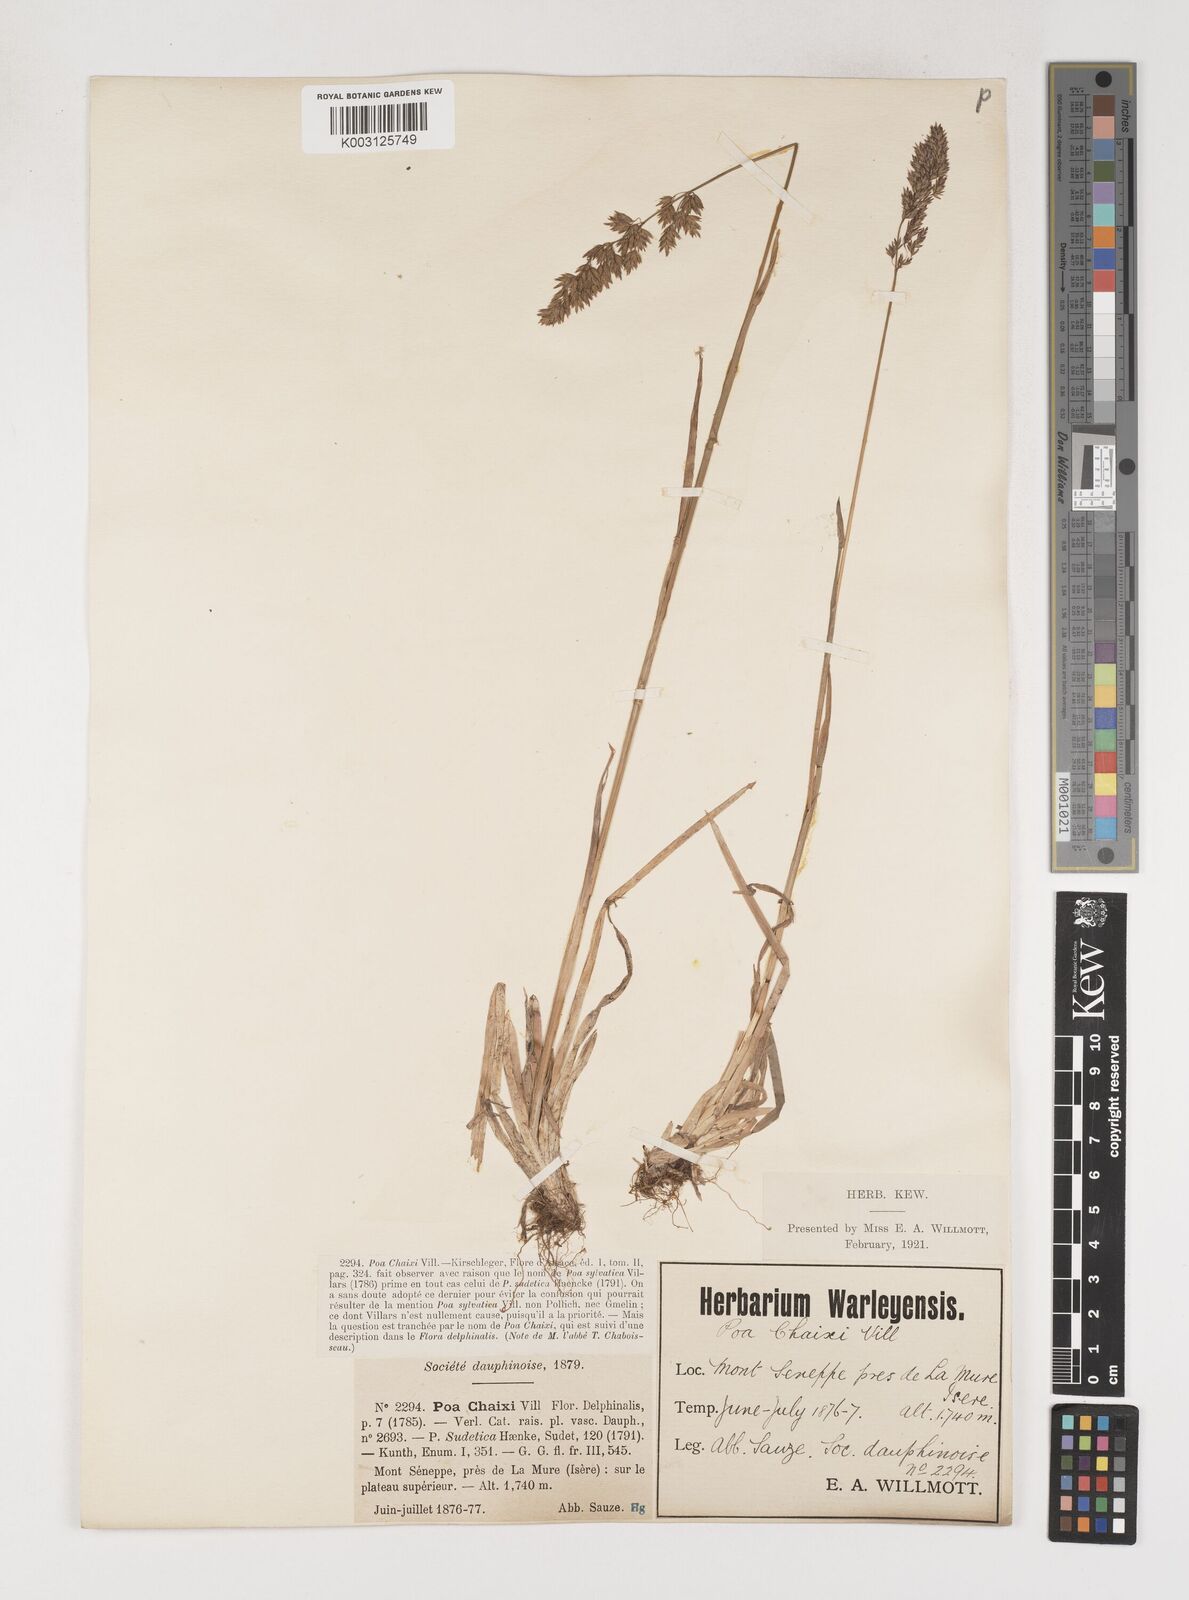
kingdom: Plantae
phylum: Tracheophyta
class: Liliopsida
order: Poales
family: Poaceae
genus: Poa
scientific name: Poa chaixii
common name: Broad-leaved meadow-grass
